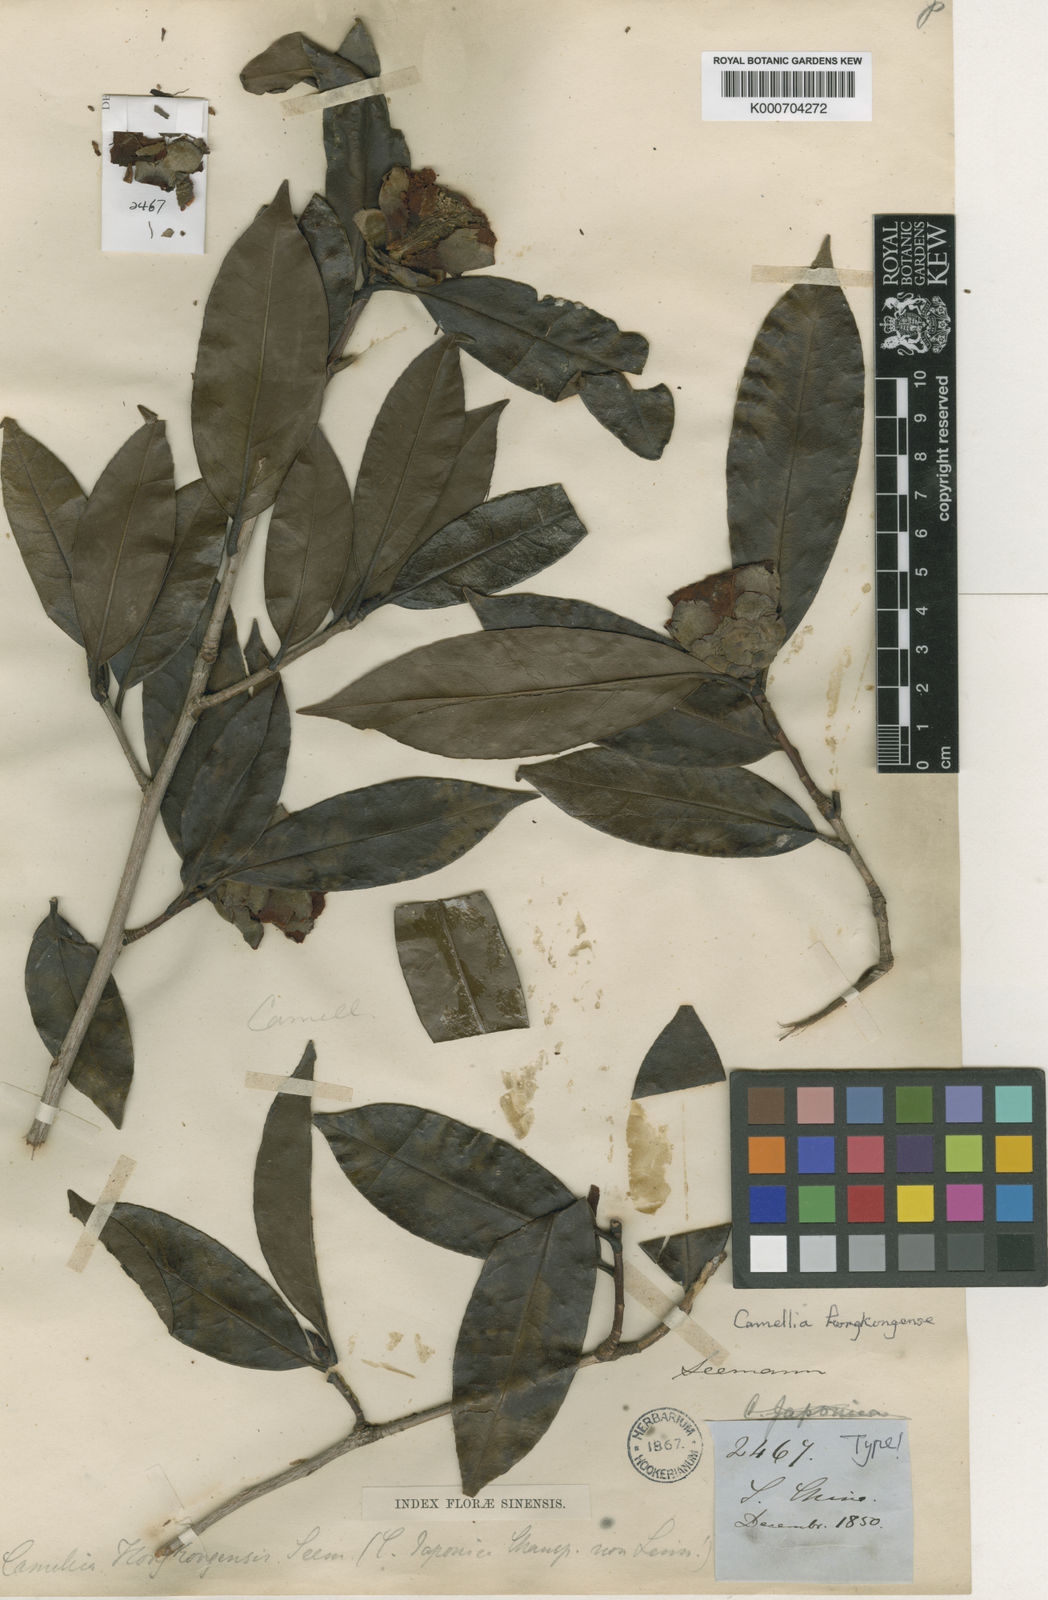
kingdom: Plantae
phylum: Tracheophyta
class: Magnoliopsida
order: Ericales
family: Theaceae
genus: Camellia
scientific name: Camellia hongkongensis
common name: Hong kong camellia
